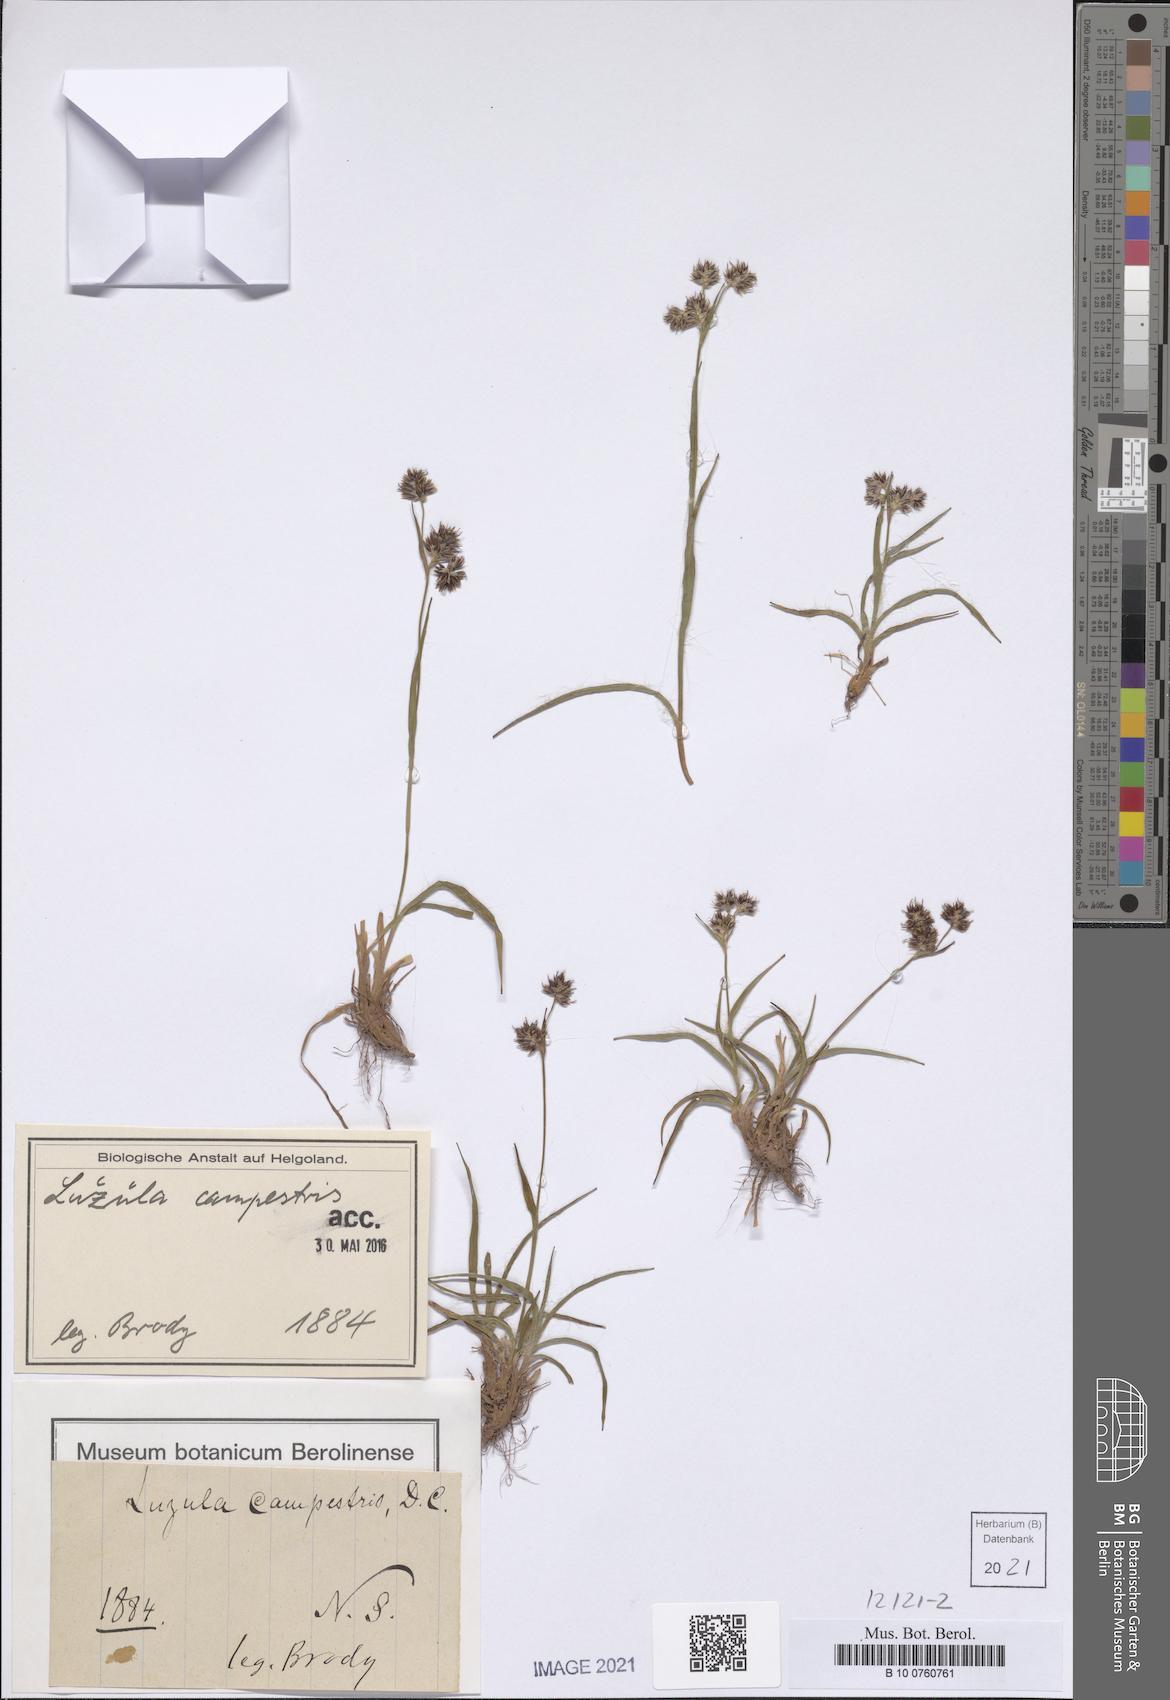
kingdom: Plantae
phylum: Tracheophyta
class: Liliopsida
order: Poales
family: Juncaceae
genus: Luzula
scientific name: Luzula campestris
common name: Field wood-rush
